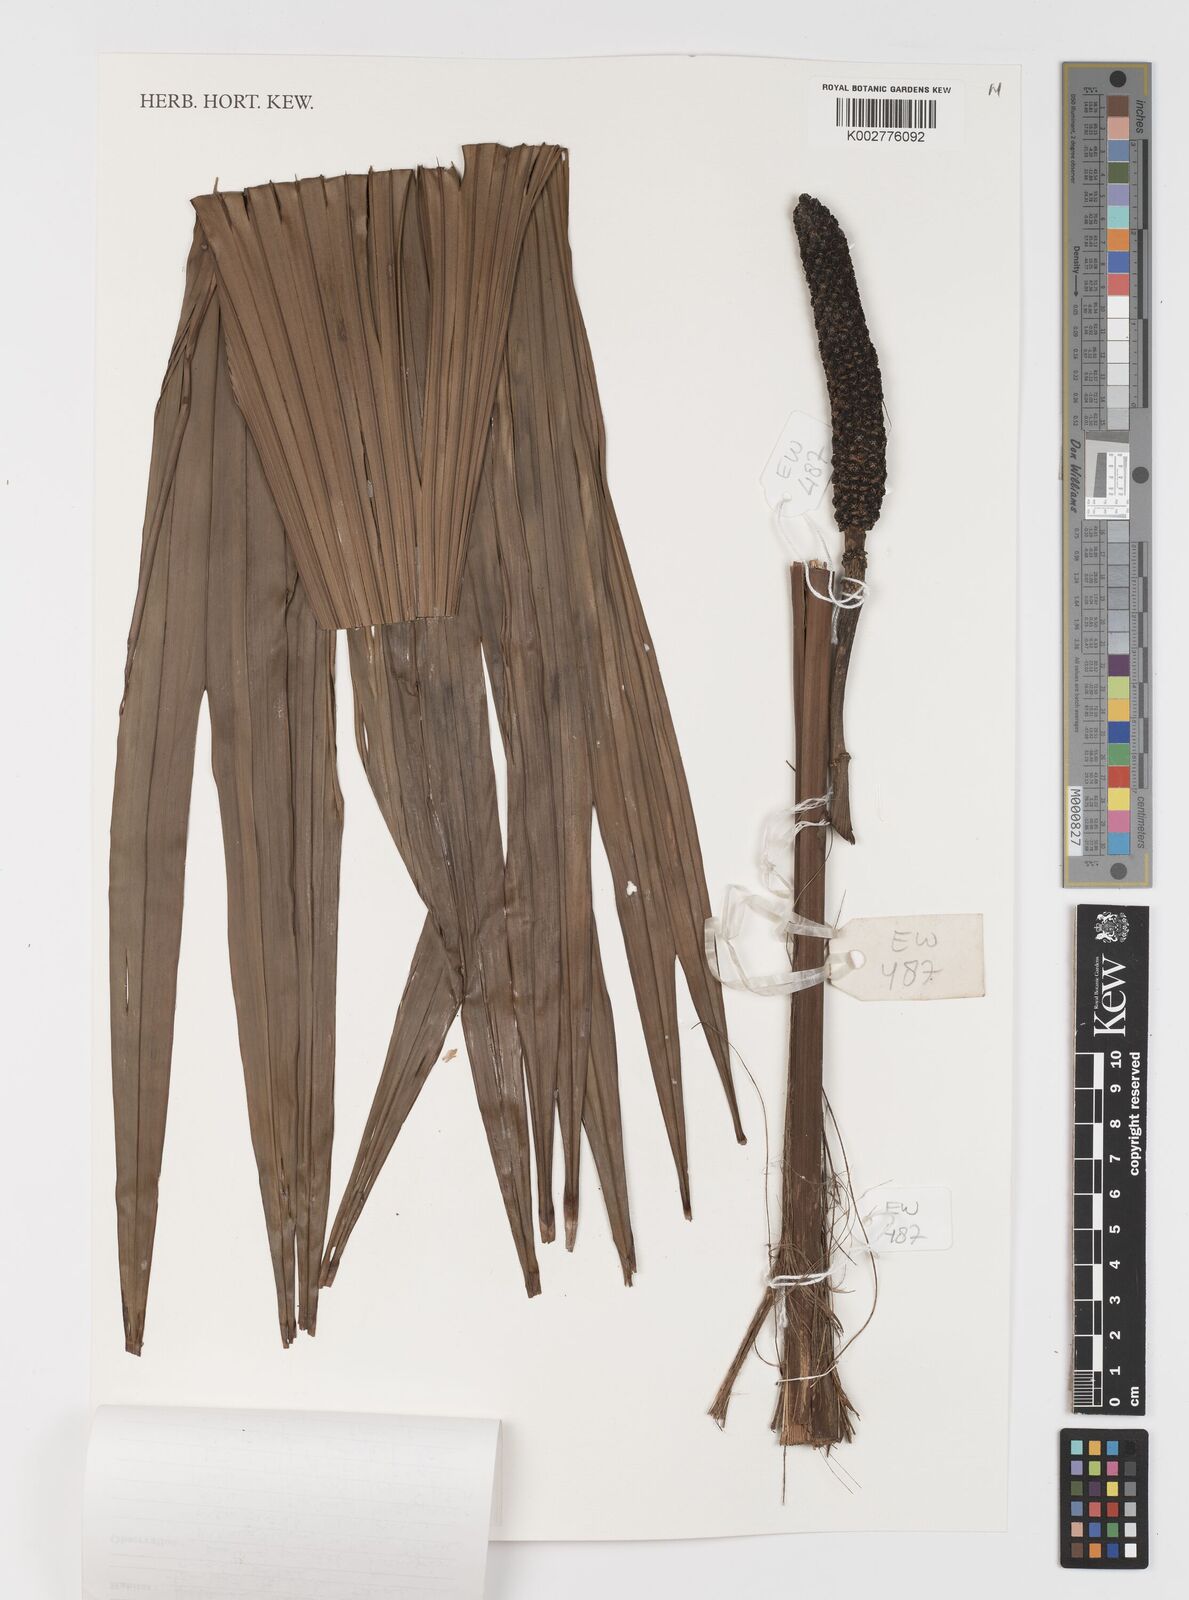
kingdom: Plantae
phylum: Tracheophyta
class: Liliopsida
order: Pandanales
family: Cyclanthaceae
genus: Carludovica
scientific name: Carludovica palmata
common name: Panama hat plant
